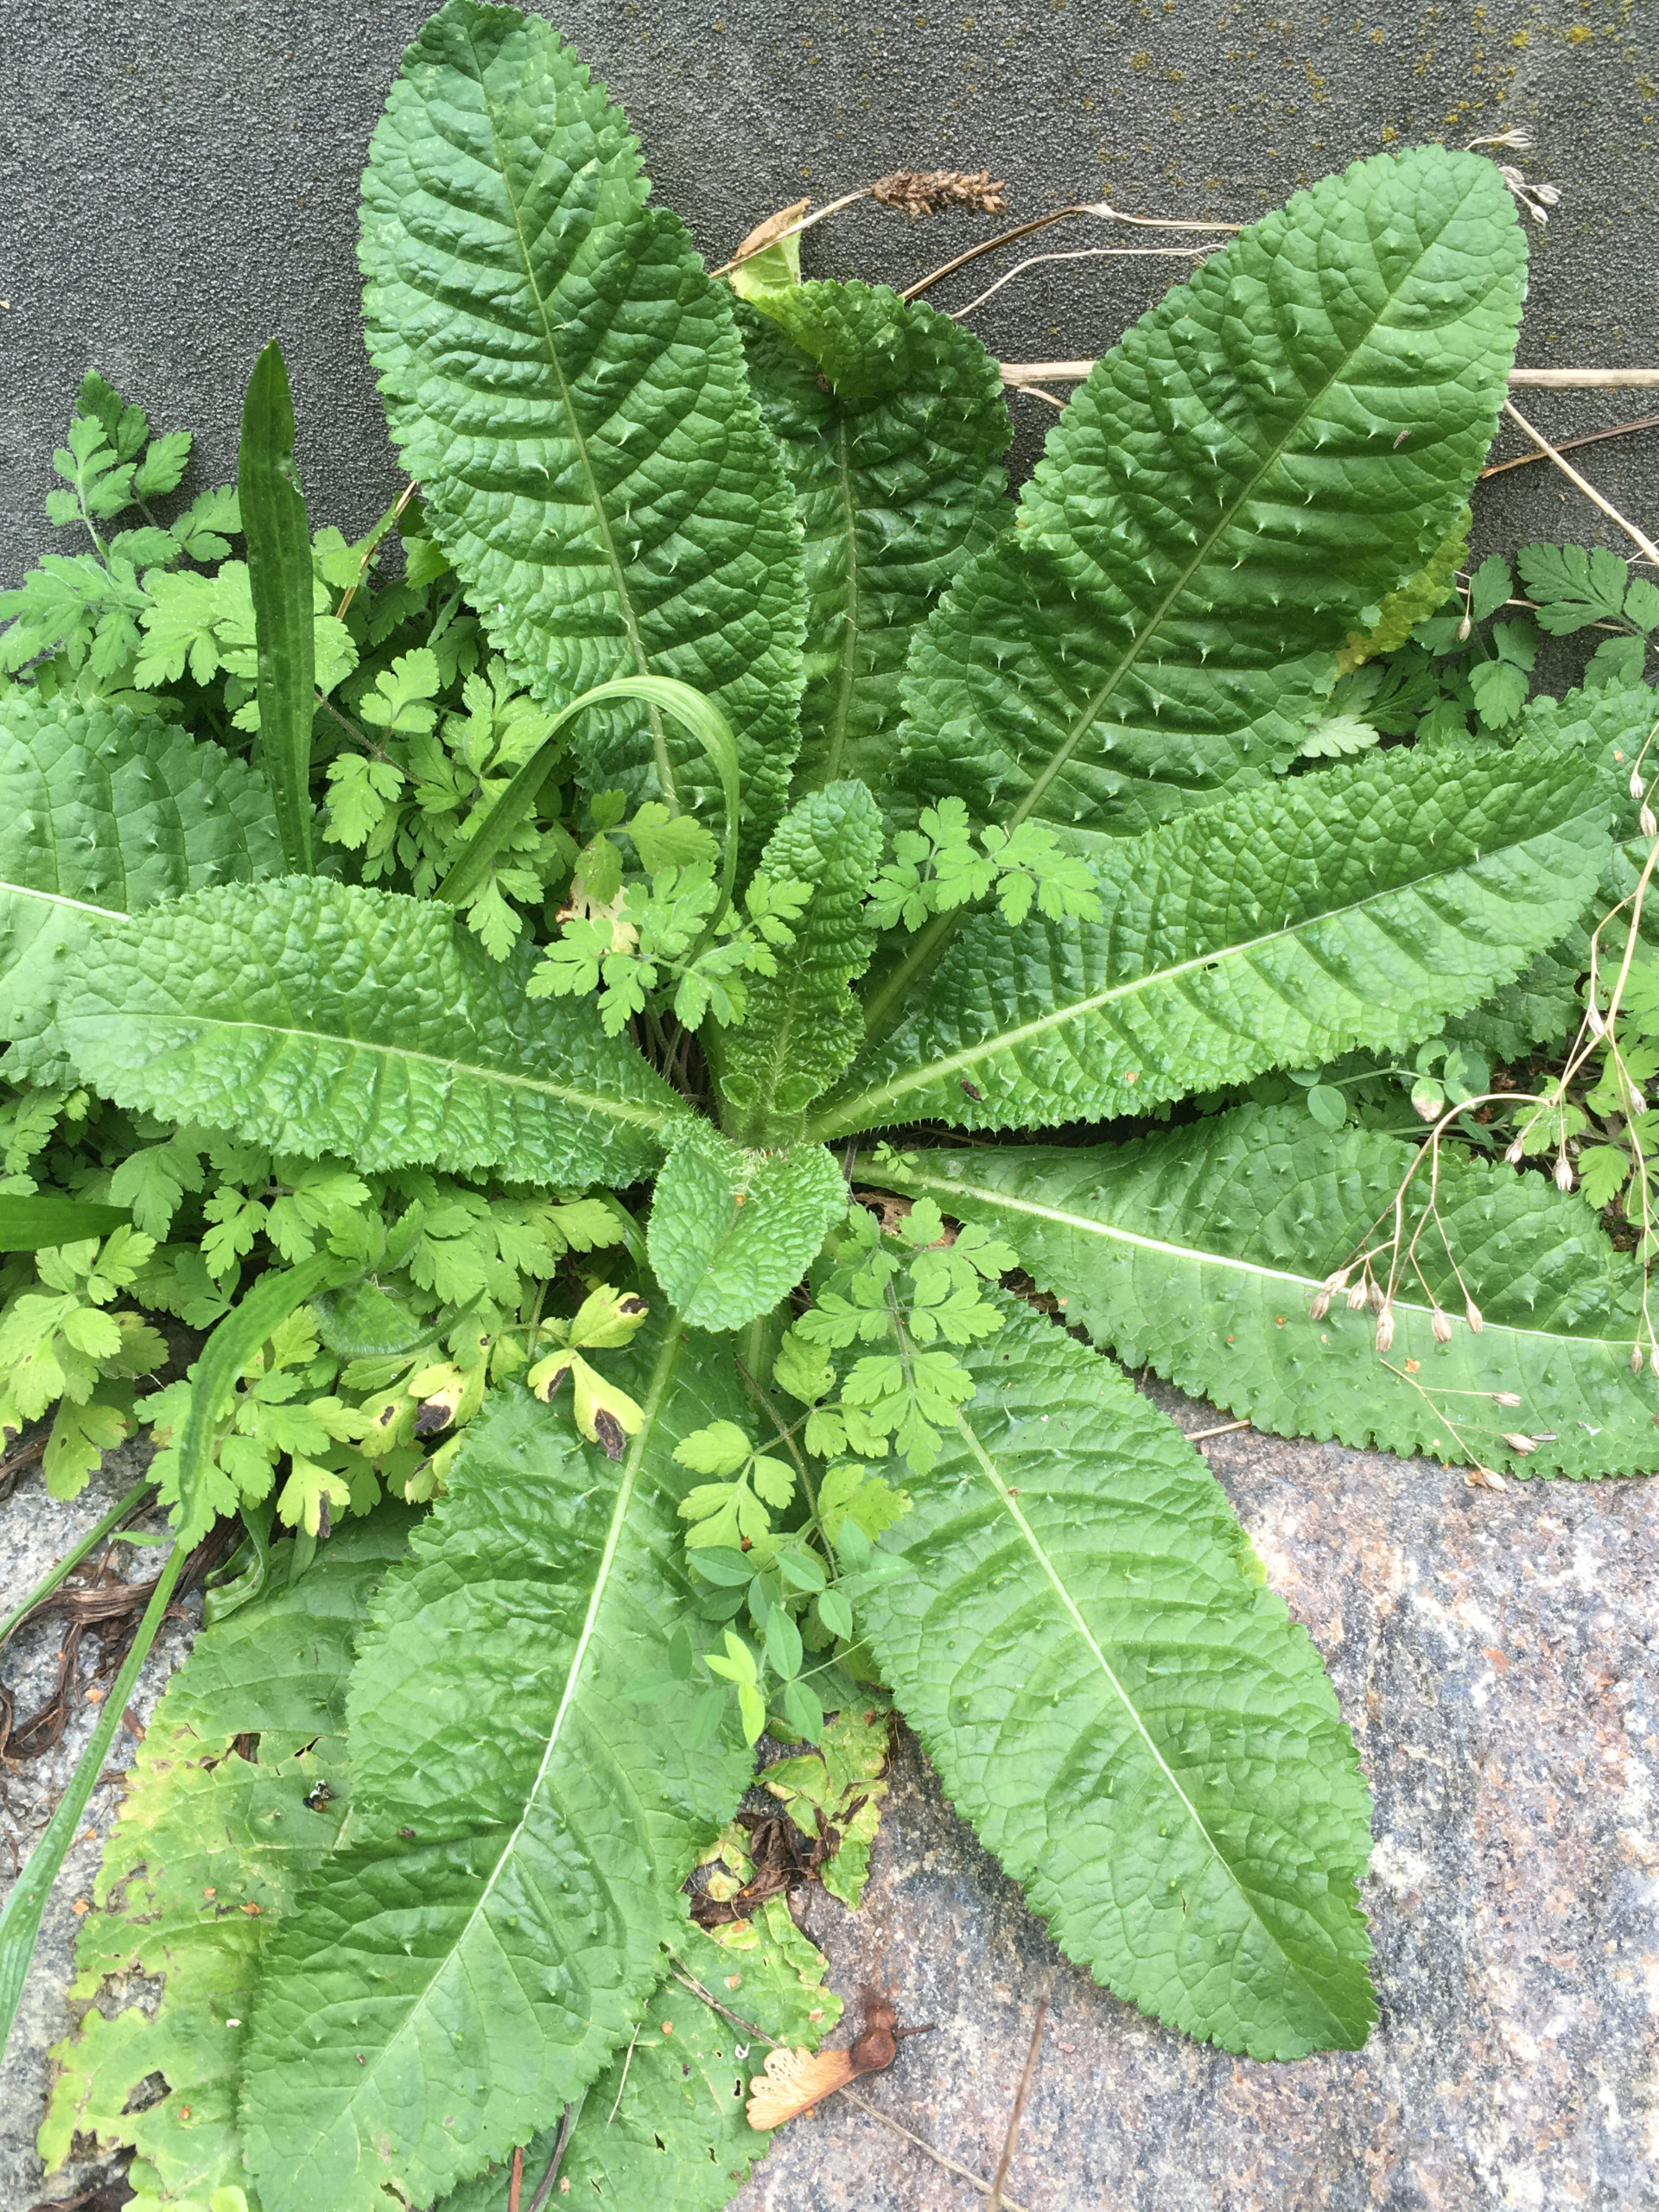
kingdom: Plantae
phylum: Tracheophyta
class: Magnoliopsida
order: Dipsacales
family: Caprifoliaceae
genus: Dipsacus
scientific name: Dipsacus fullonum
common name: Gærde-kartebolle
